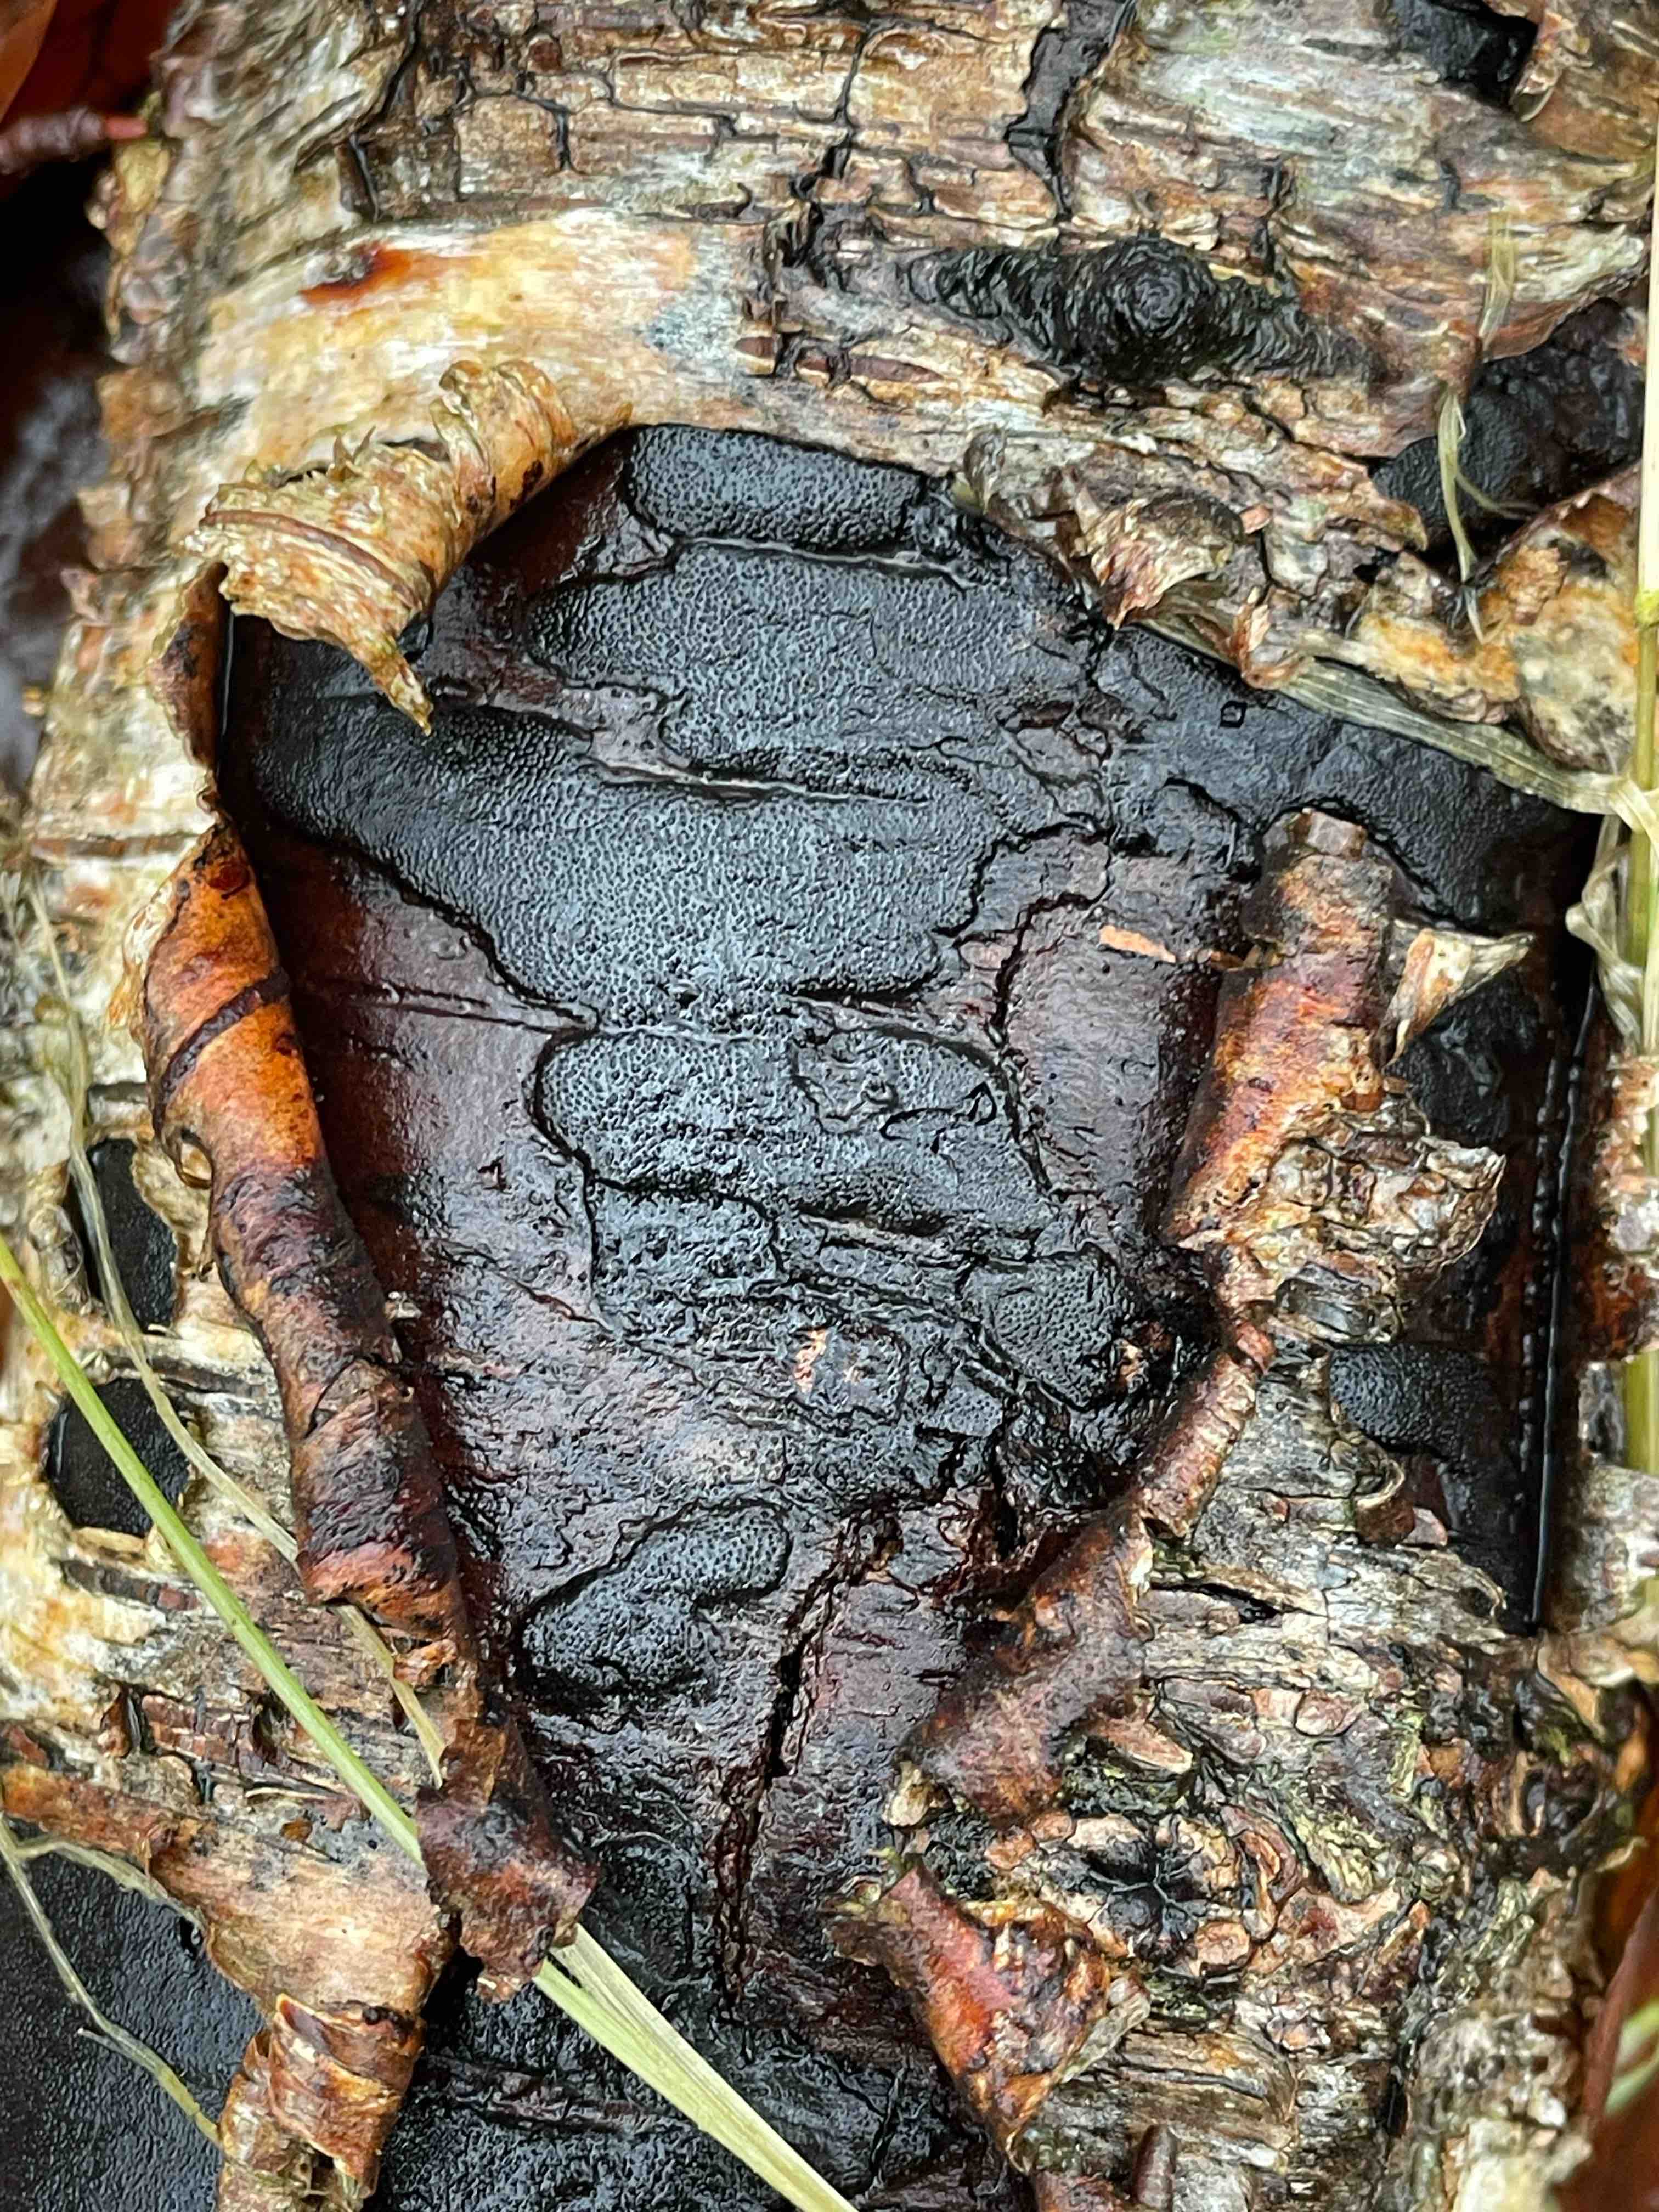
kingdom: Fungi
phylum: Ascomycota
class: Sordariomycetes
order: Xylariales
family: Diatrypaceae
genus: Diatrype
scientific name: Diatrype
